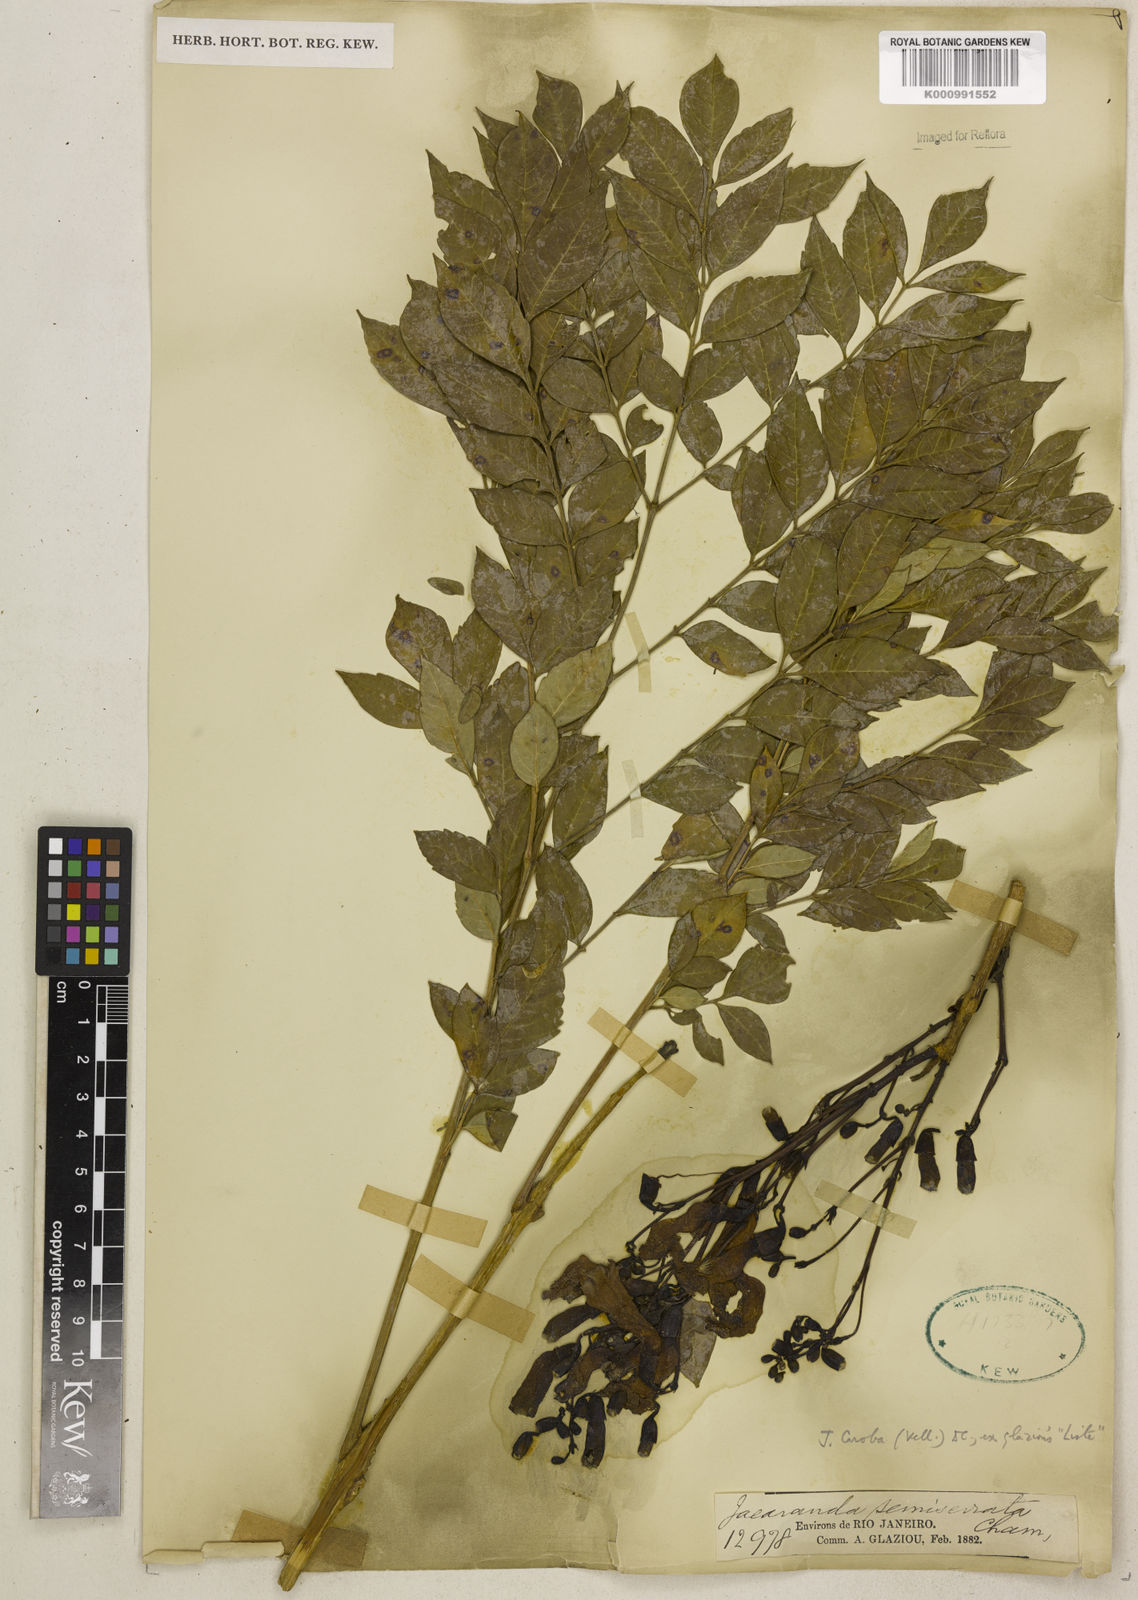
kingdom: Plantae
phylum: Tracheophyta
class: Magnoliopsida
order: Lamiales
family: Bignoniaceae
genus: Jacaranda
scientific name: Jacaranda puberula
